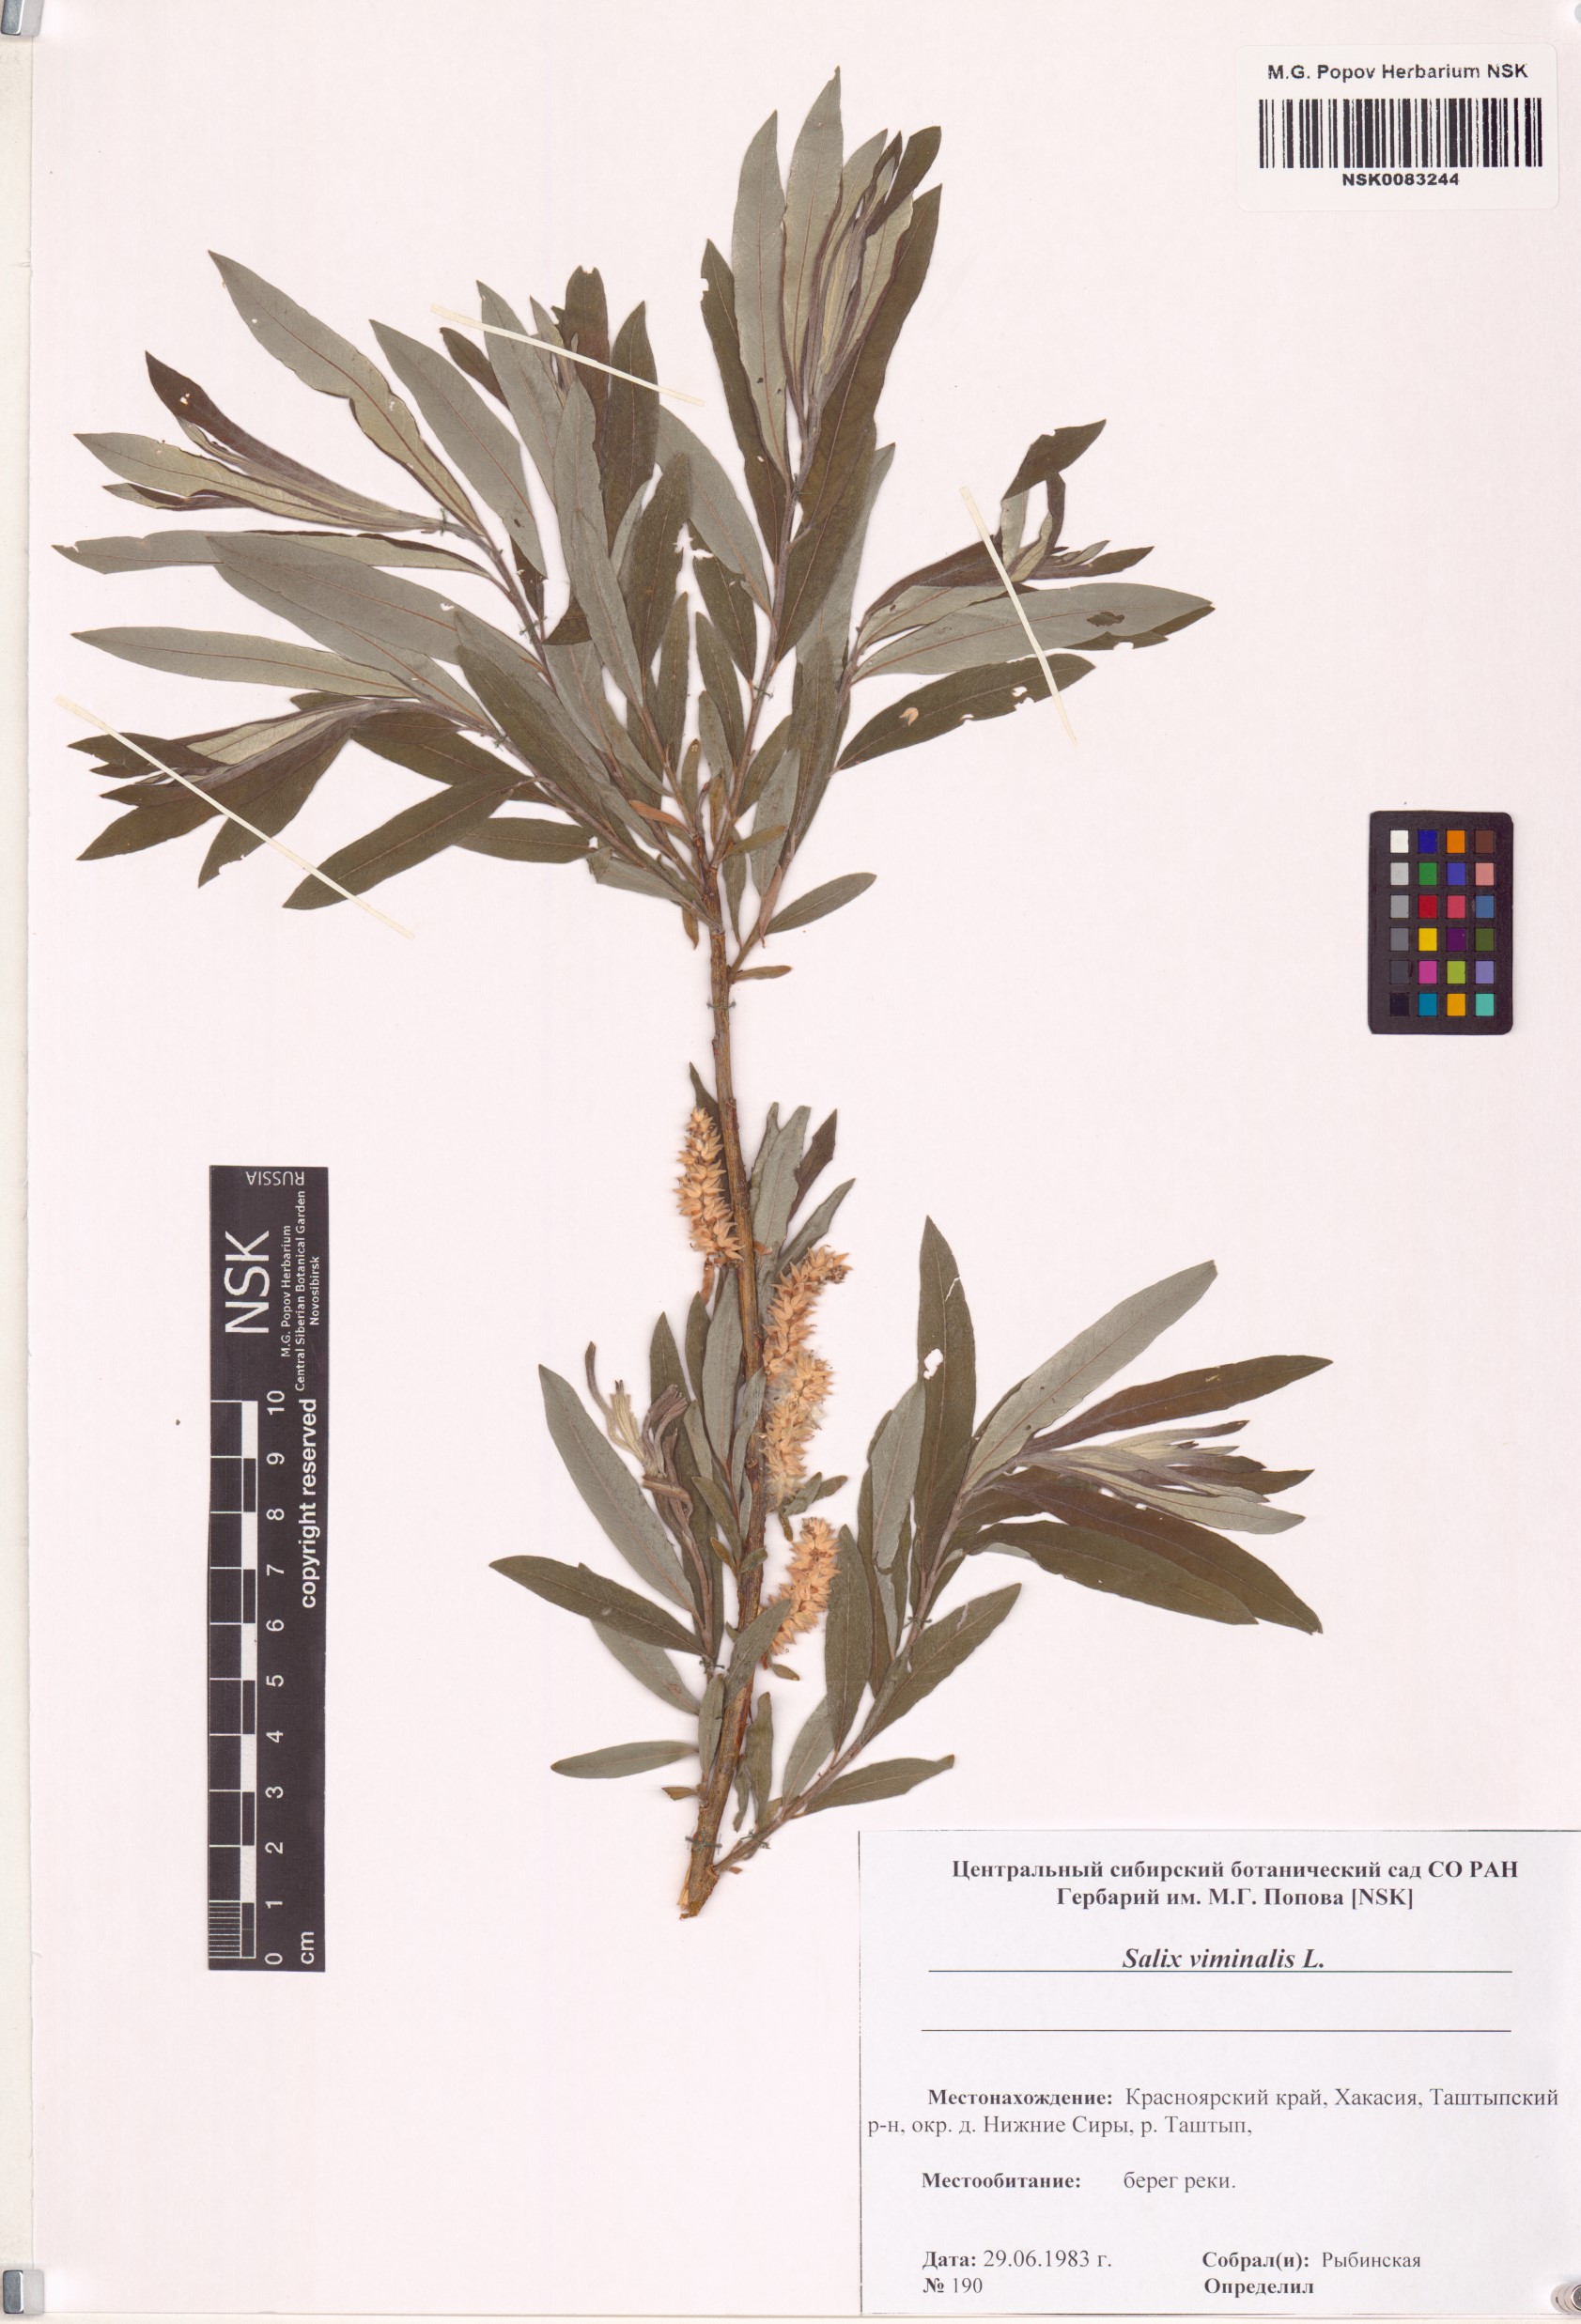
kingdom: Plantae
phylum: Tracheophyta
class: Magnoliopsida
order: Malpighiales
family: Salicaceae
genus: Salix
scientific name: Salix viminalis
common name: Osier
